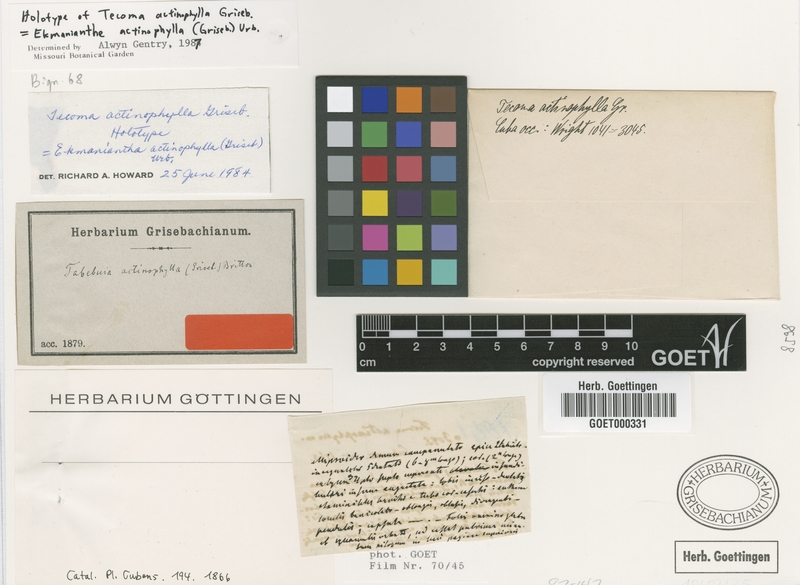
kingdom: Plantae
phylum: Tracheophyta
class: Magnoliopsida
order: Lamiales
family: Bignoniaceae
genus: Ekmanianthe
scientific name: Ekmanianthe actinophylla
